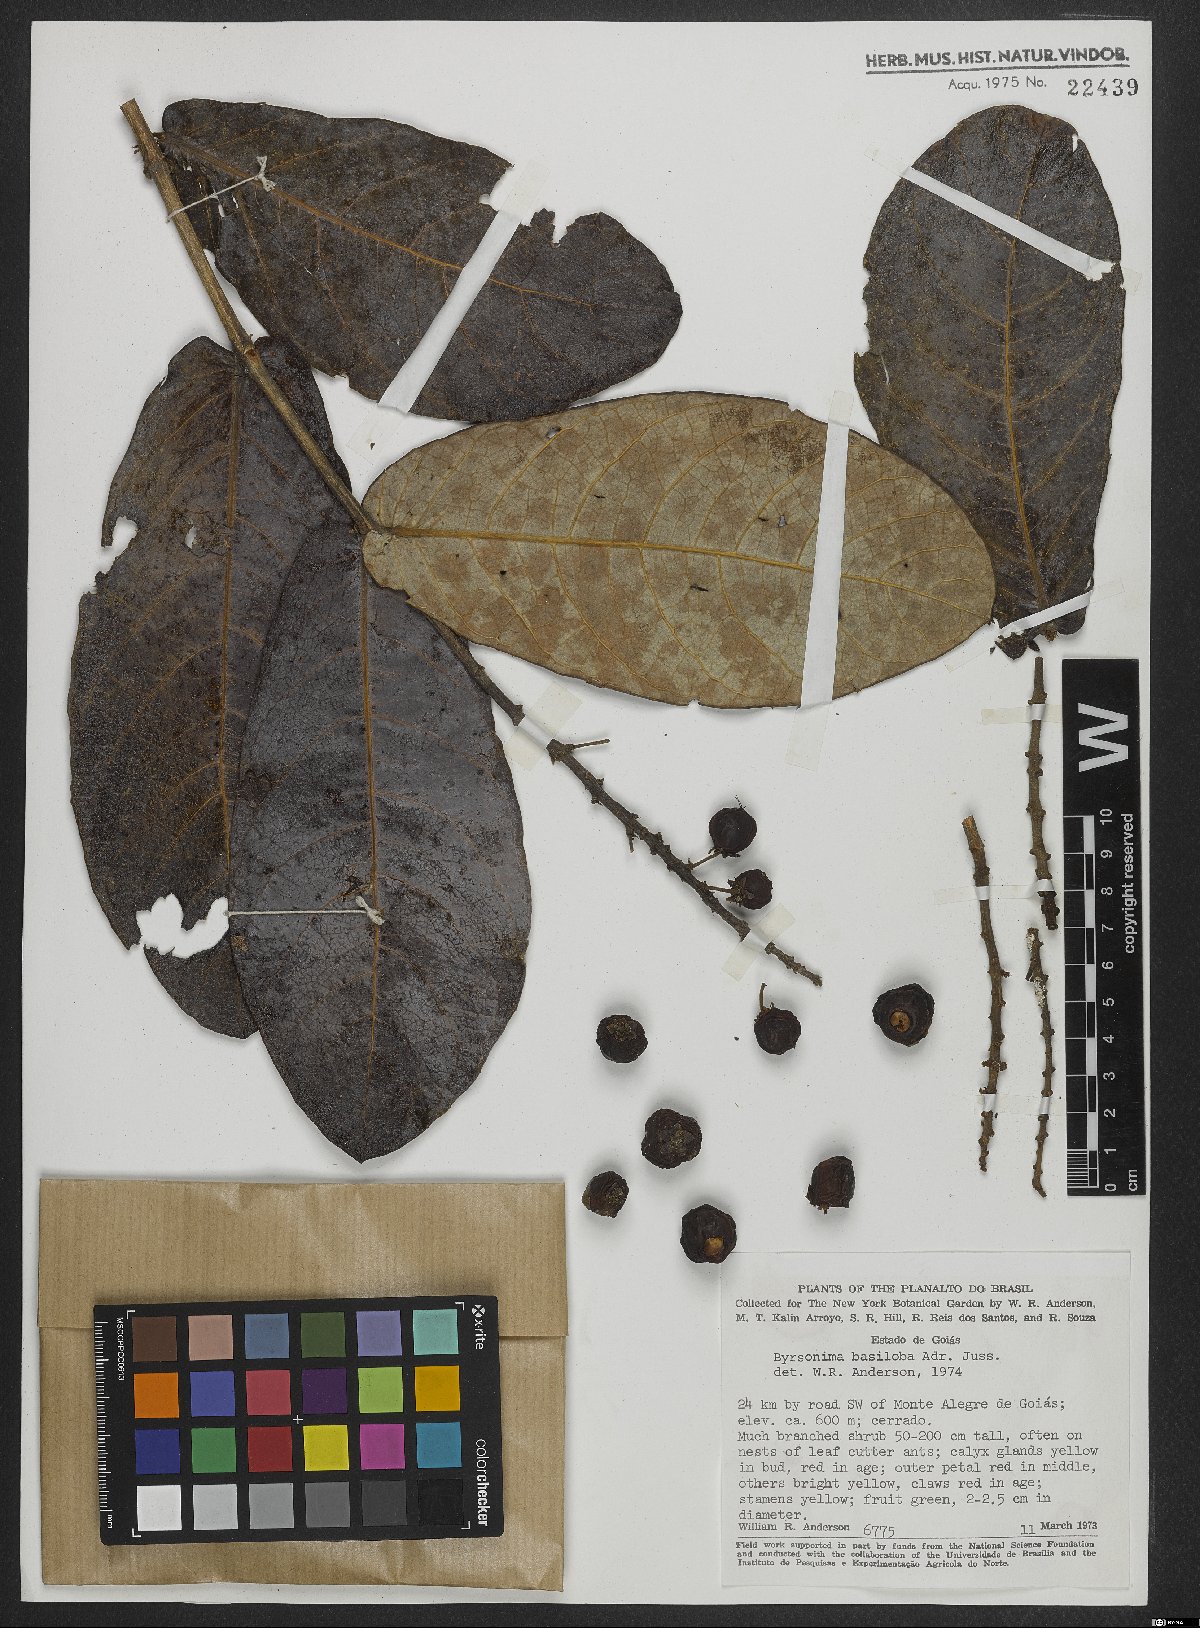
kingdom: Plantae
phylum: Tracheophyta
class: Magnoliopsida
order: Malpighiales
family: Malpighiaceae
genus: Byrsonima
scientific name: Byrsonima basiloba
